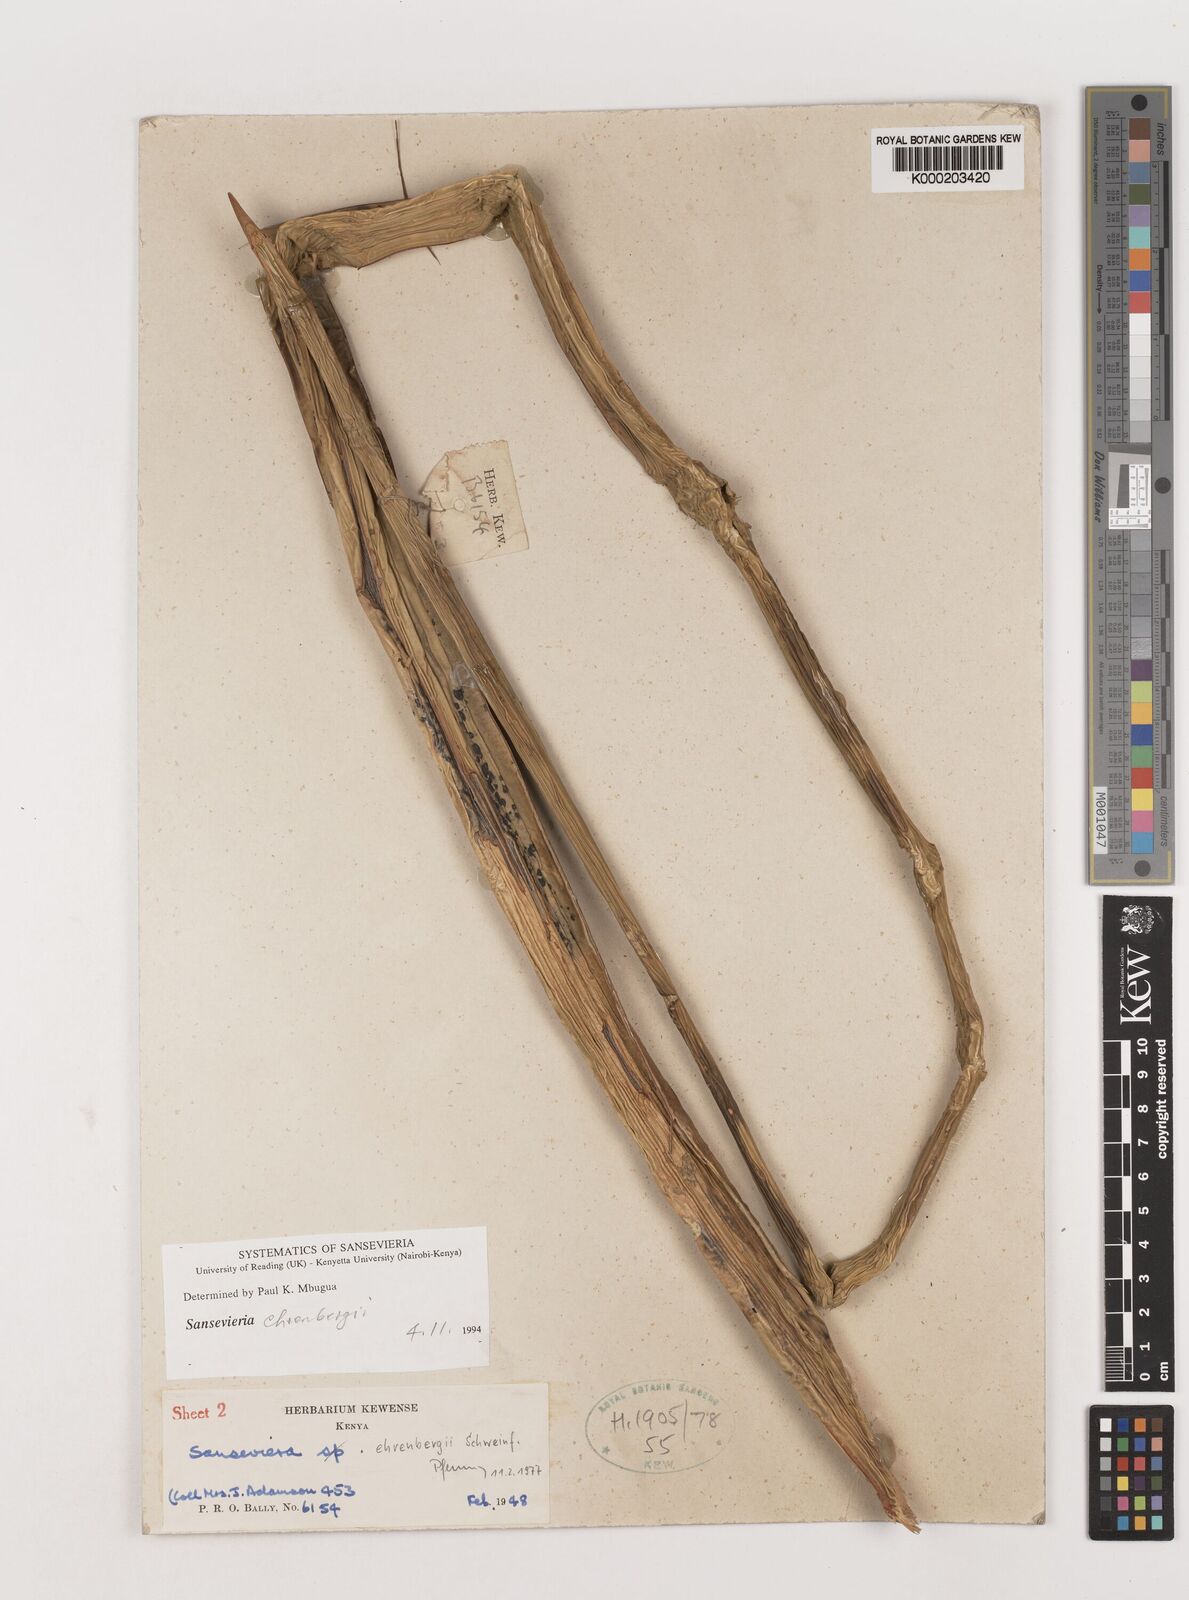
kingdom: Plantae
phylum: Tracheophyta
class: Liliopsida
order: Asparagales
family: Asparagaceae
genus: Dracaena
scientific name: Dracaena hanningtonii
